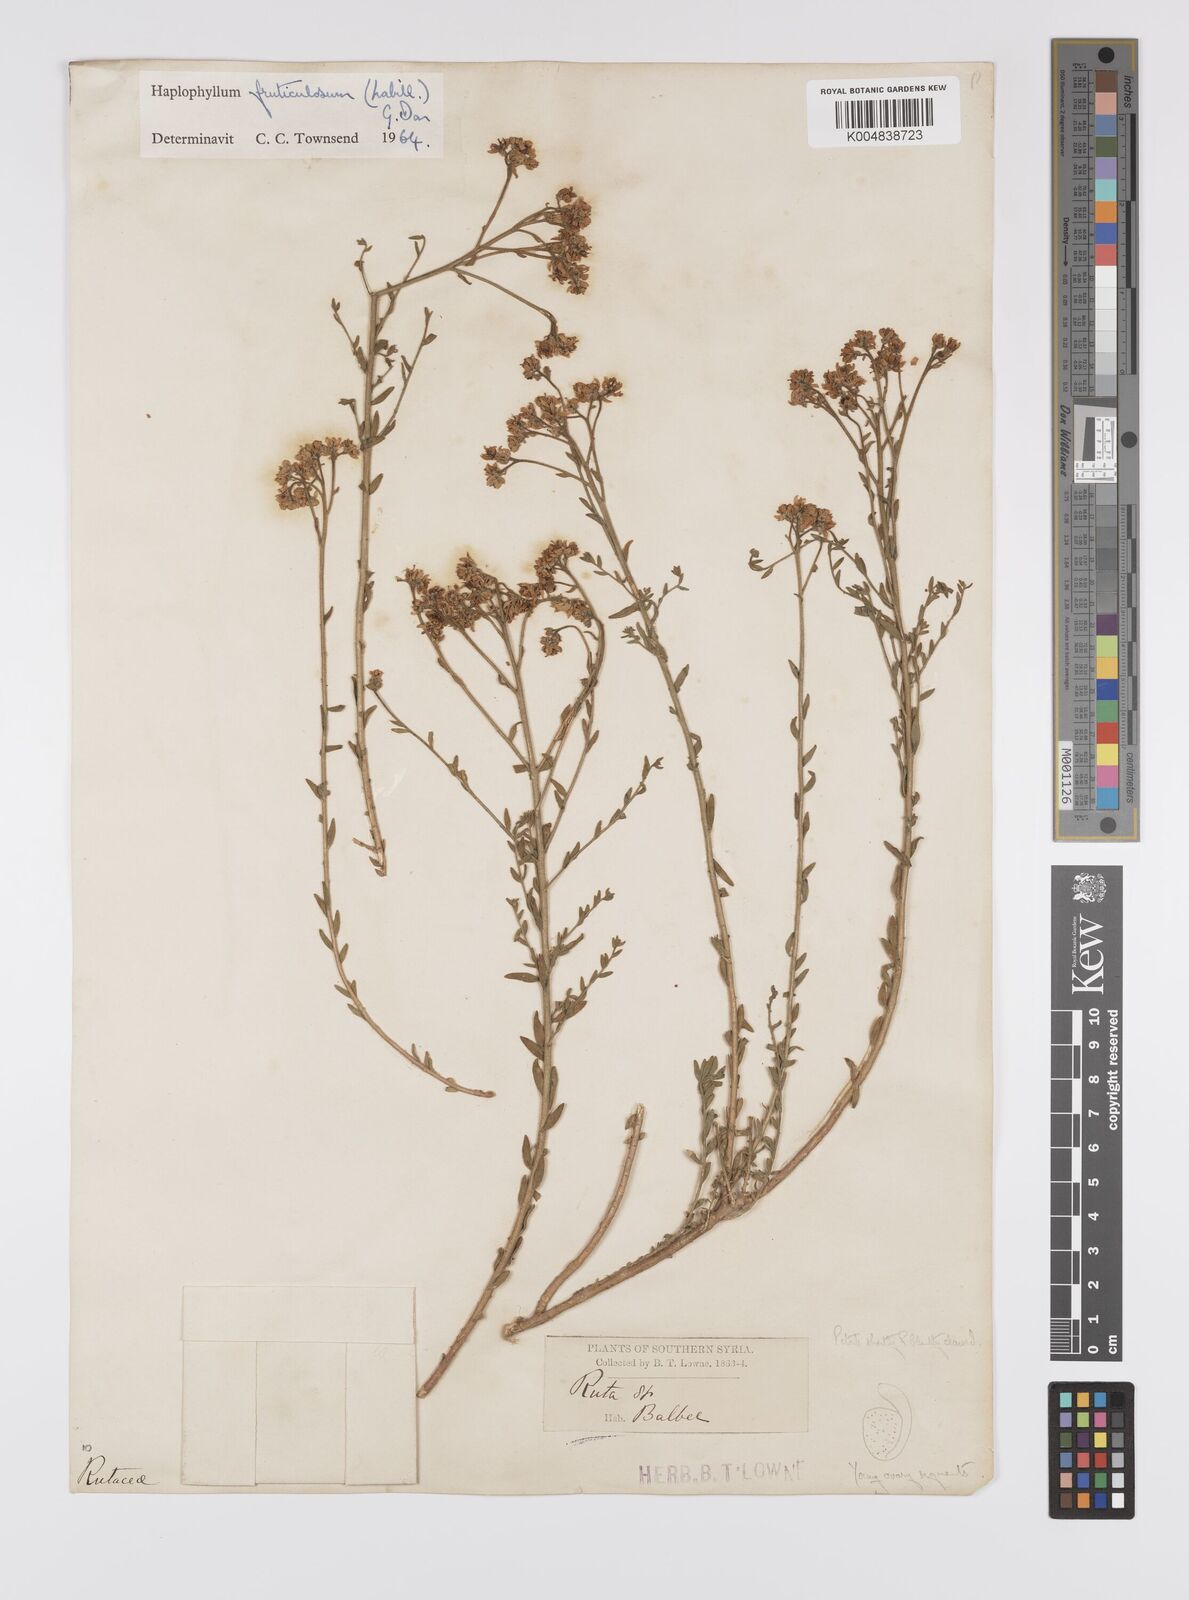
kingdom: Plantae
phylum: Tracheophyta
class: Magnoliopsida
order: Sapindales
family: Rutaceae
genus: Haplophyllum
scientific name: Haplophyllum fruticulosum
